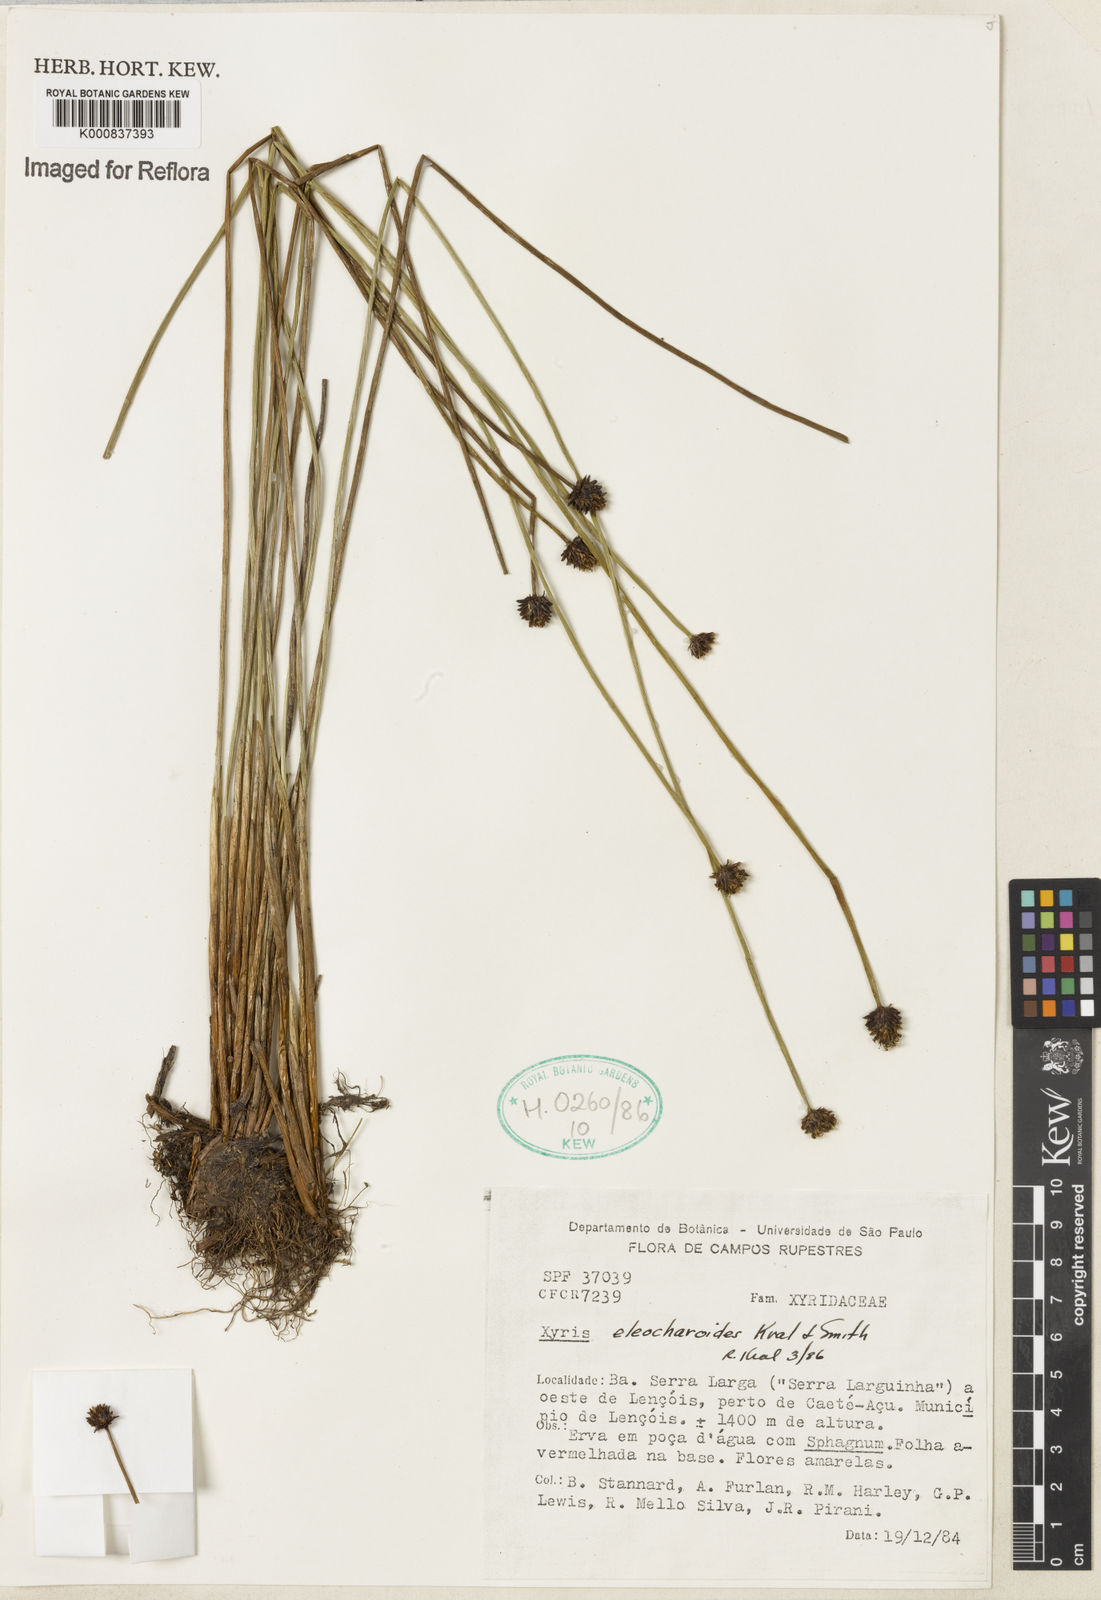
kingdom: Plantae
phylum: Tracheophyta
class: Liliopsida
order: Poales
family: Xyridaceae
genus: Xyris
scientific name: Xyris eleocharoides
